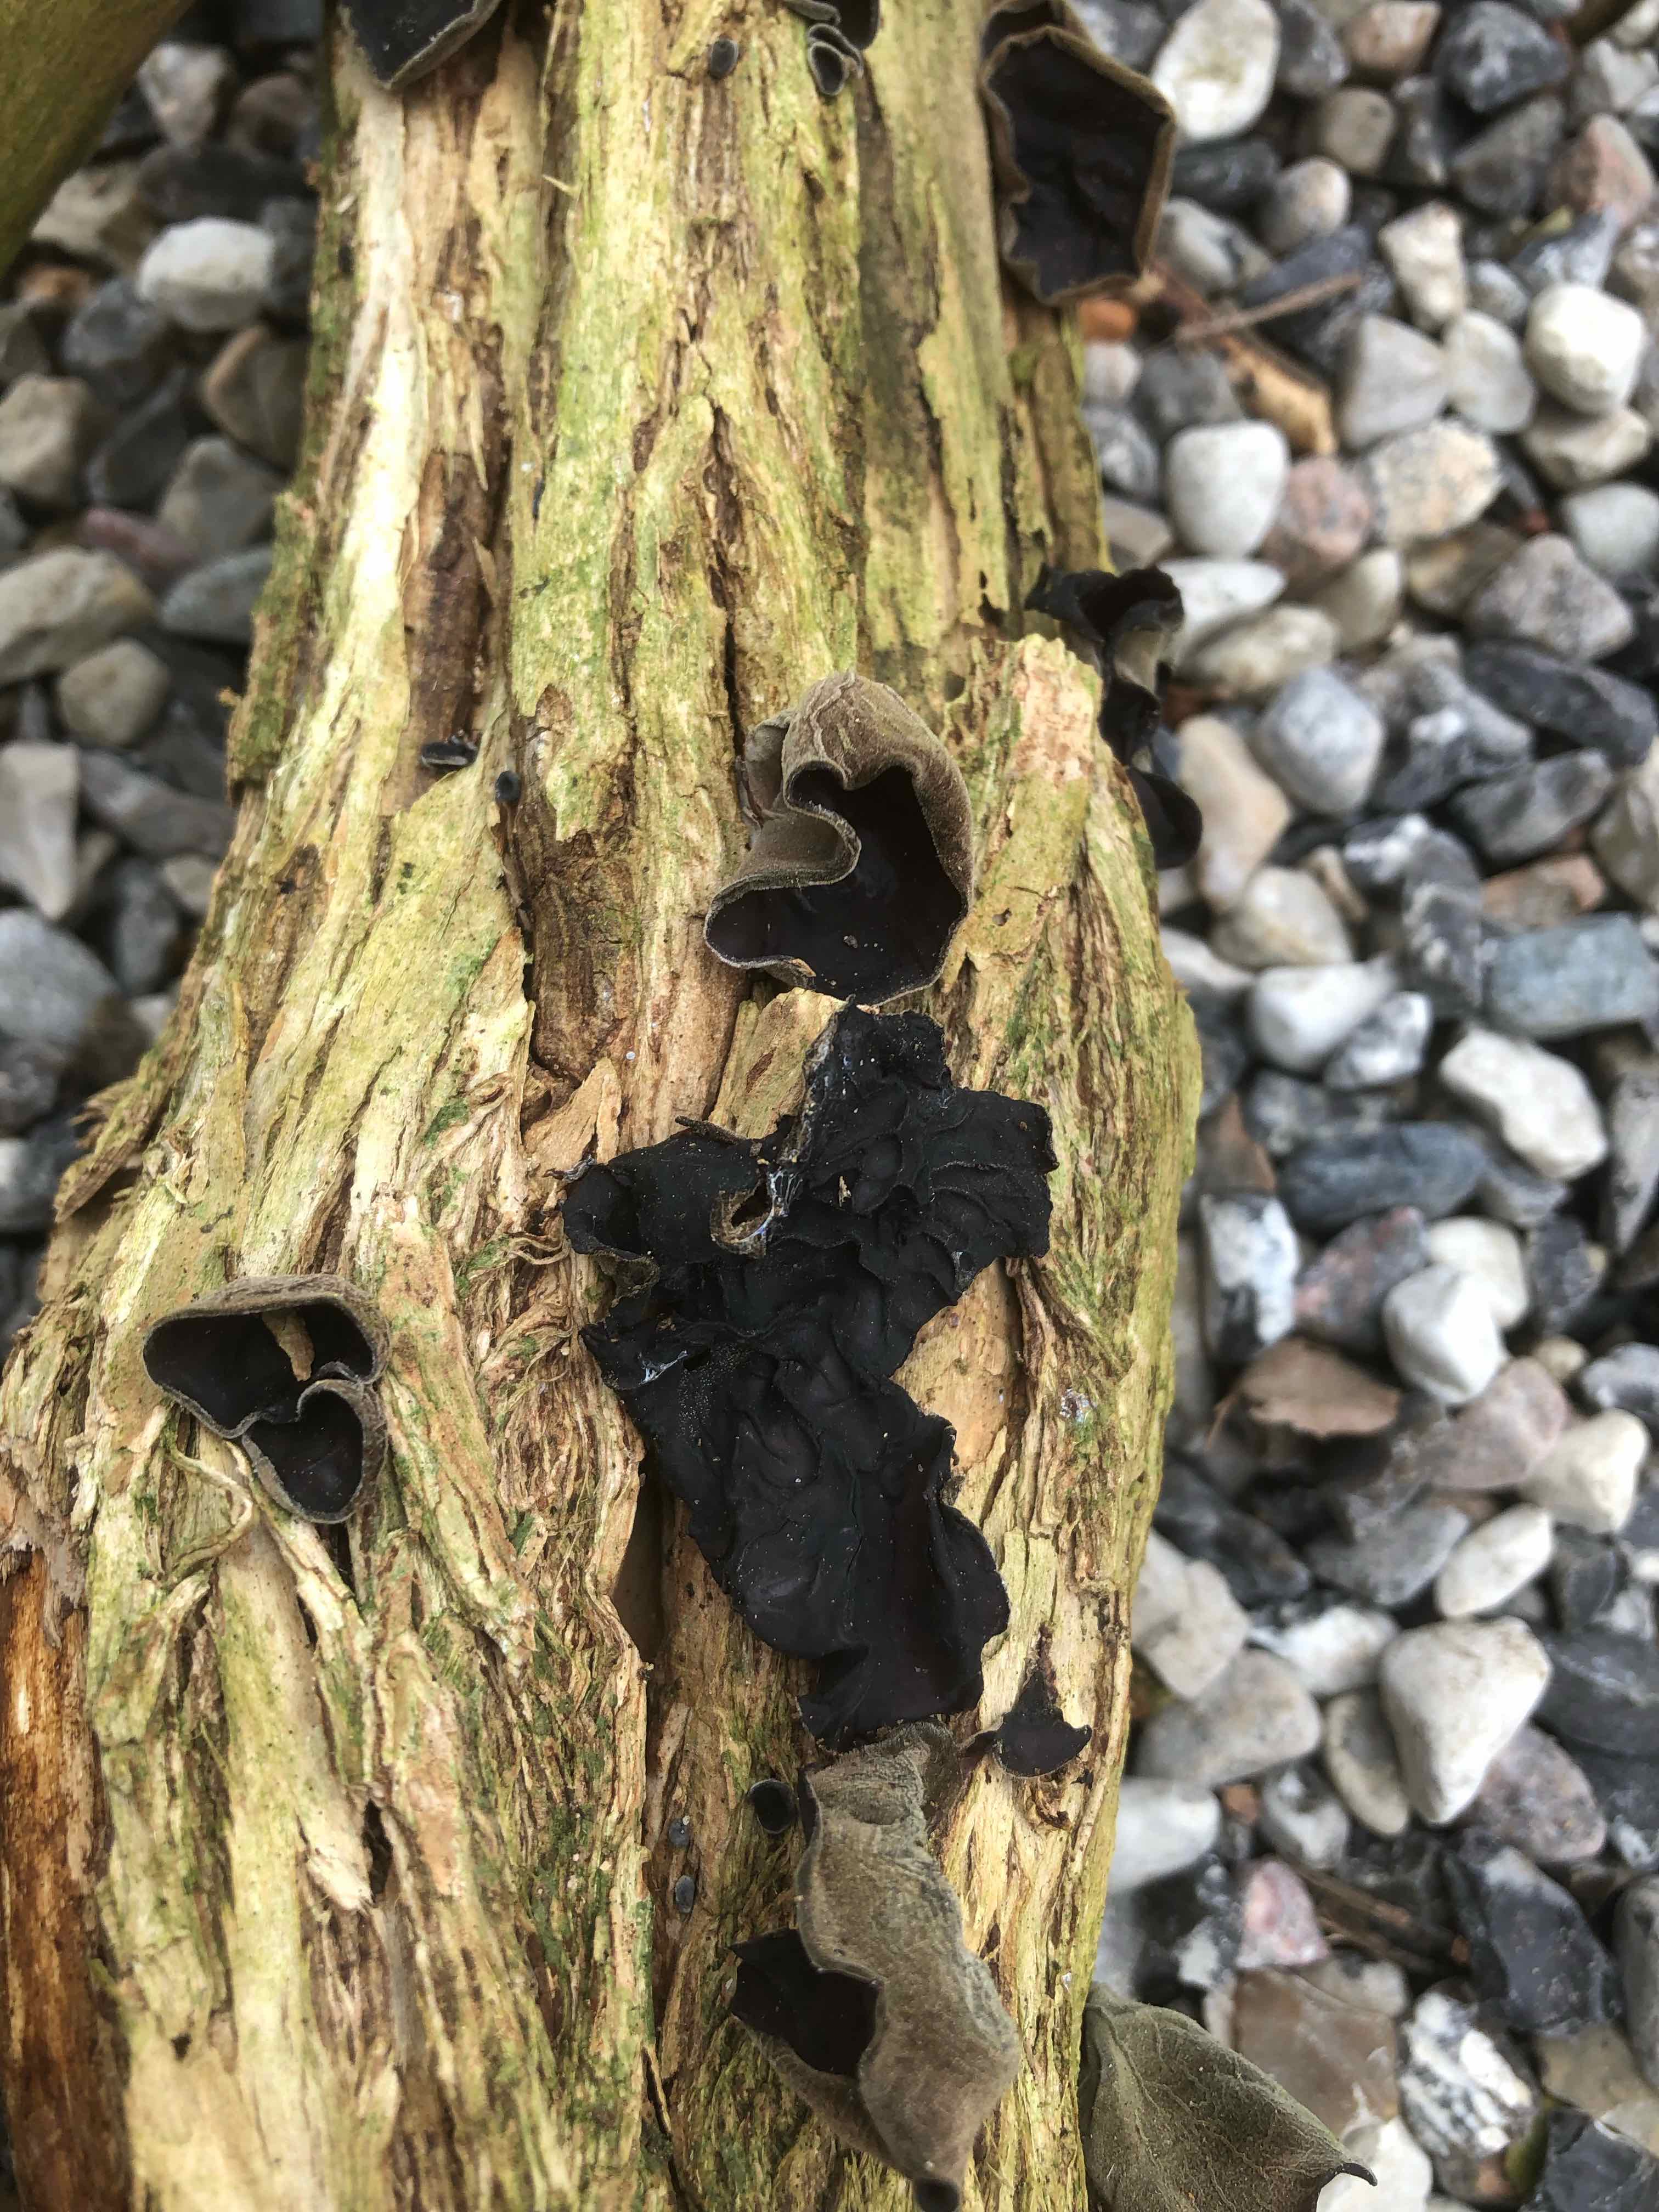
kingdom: Fungi
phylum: Basidiomycota
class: Agaricomycetes
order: Auriculariales
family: Auriculariaceae
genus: Auricularia
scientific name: Auricularia auricula-judae
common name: almindelig judasøre
